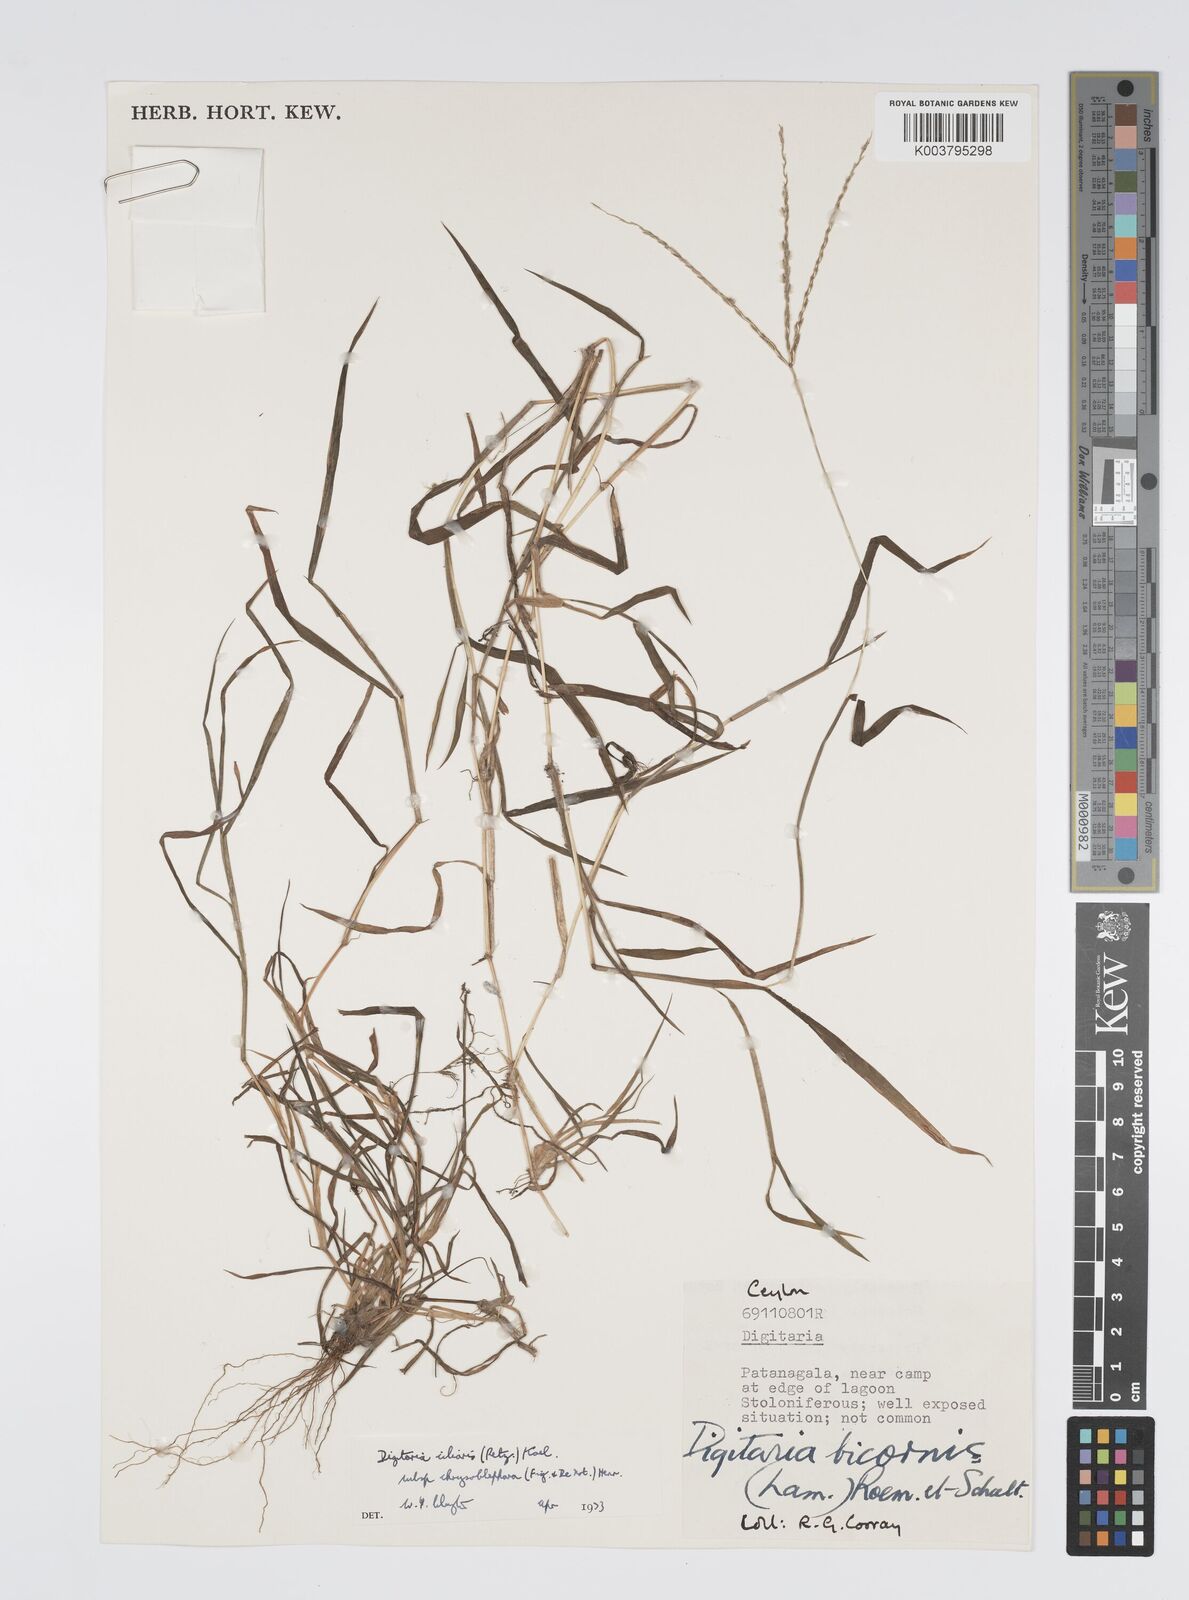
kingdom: Plantae
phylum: Tracheophyta
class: Liliopsida
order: Poales
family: Poaceae
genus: Digitaria
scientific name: Digitaria ciliaris
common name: Tropical finger-grass
